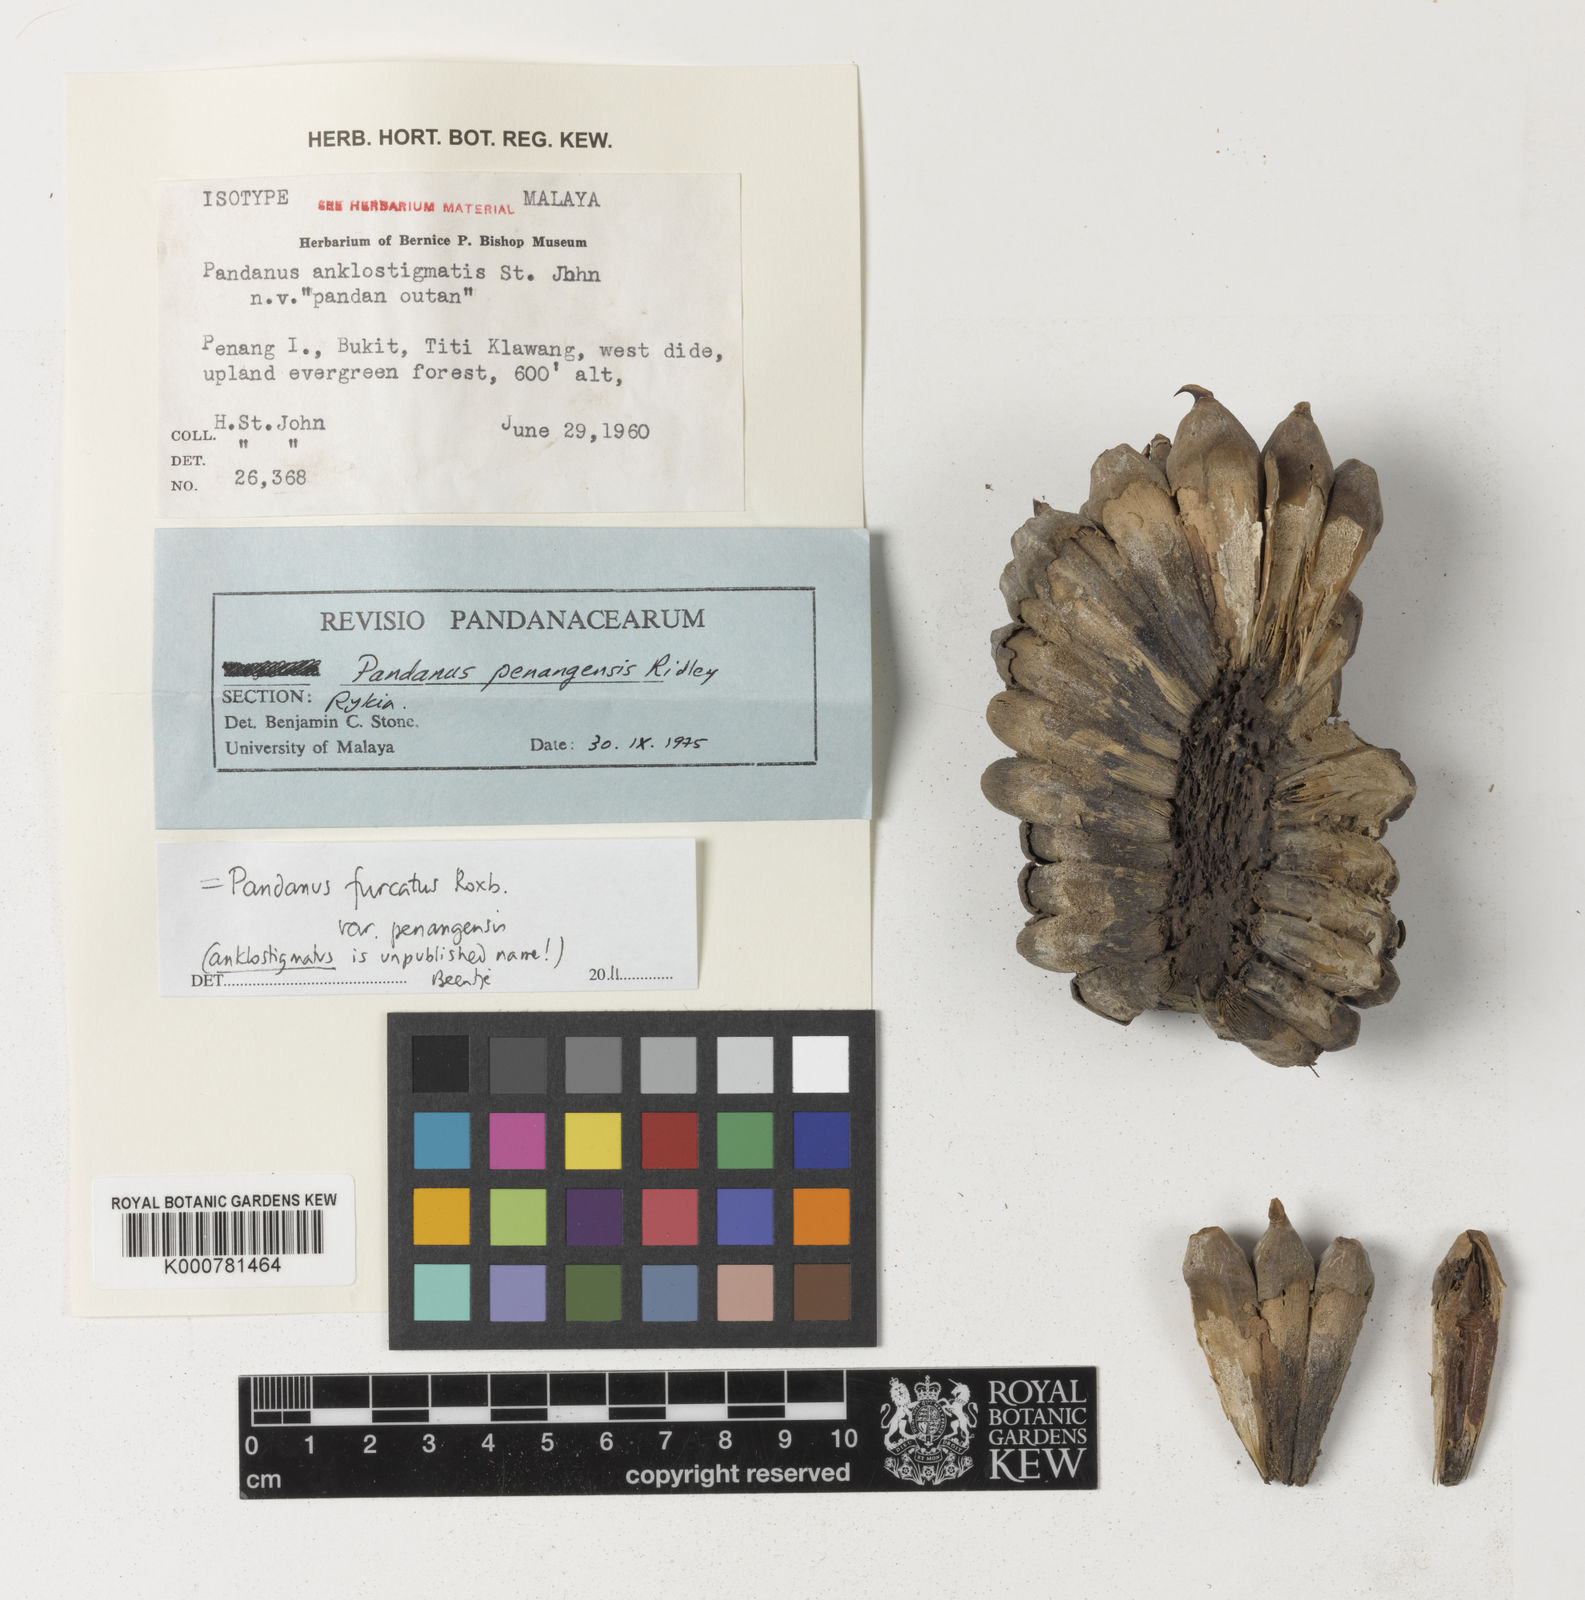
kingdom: Plantae
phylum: Tracheophyta
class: Liliopsida
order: Pandanales
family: Pandanaceae
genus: Pandanus
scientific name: Pandanus
